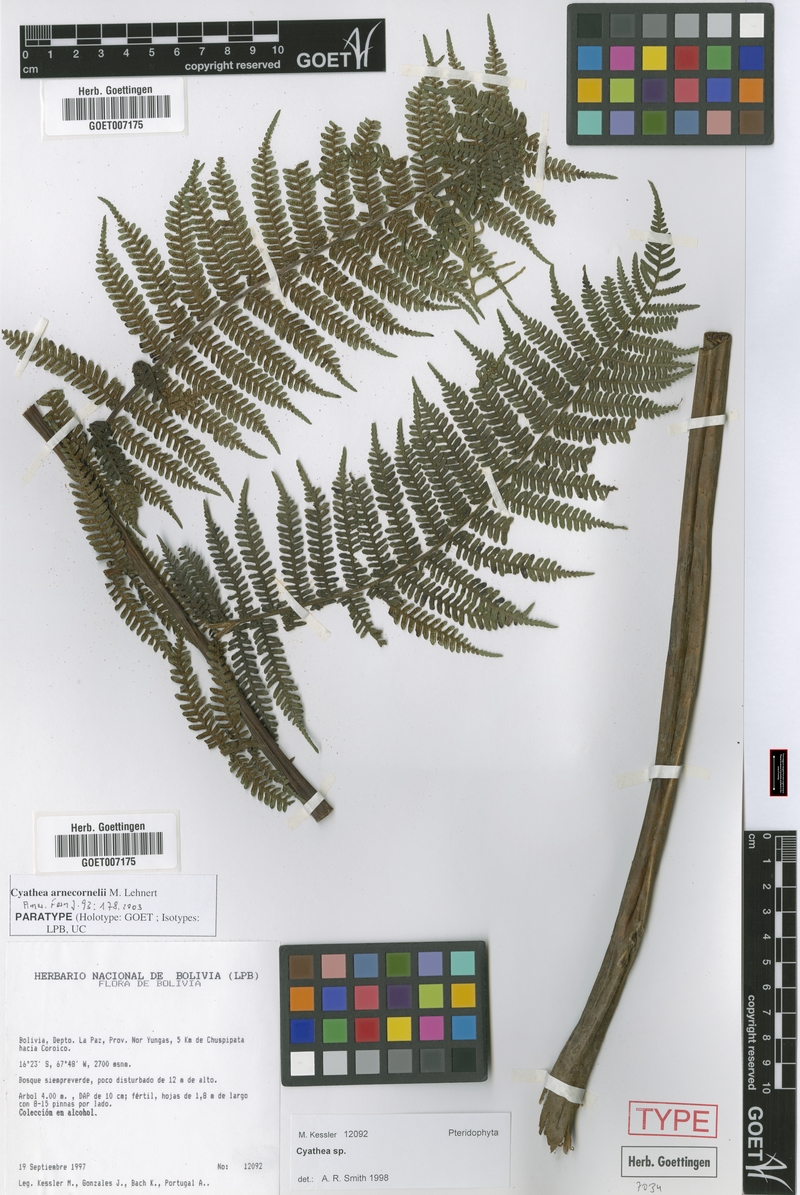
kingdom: Plantae
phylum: Tracheophyta
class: Polypodiopsida
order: Cyatheales
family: Cyatheaceae
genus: Cyathea
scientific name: Cyathea arnecornelii
